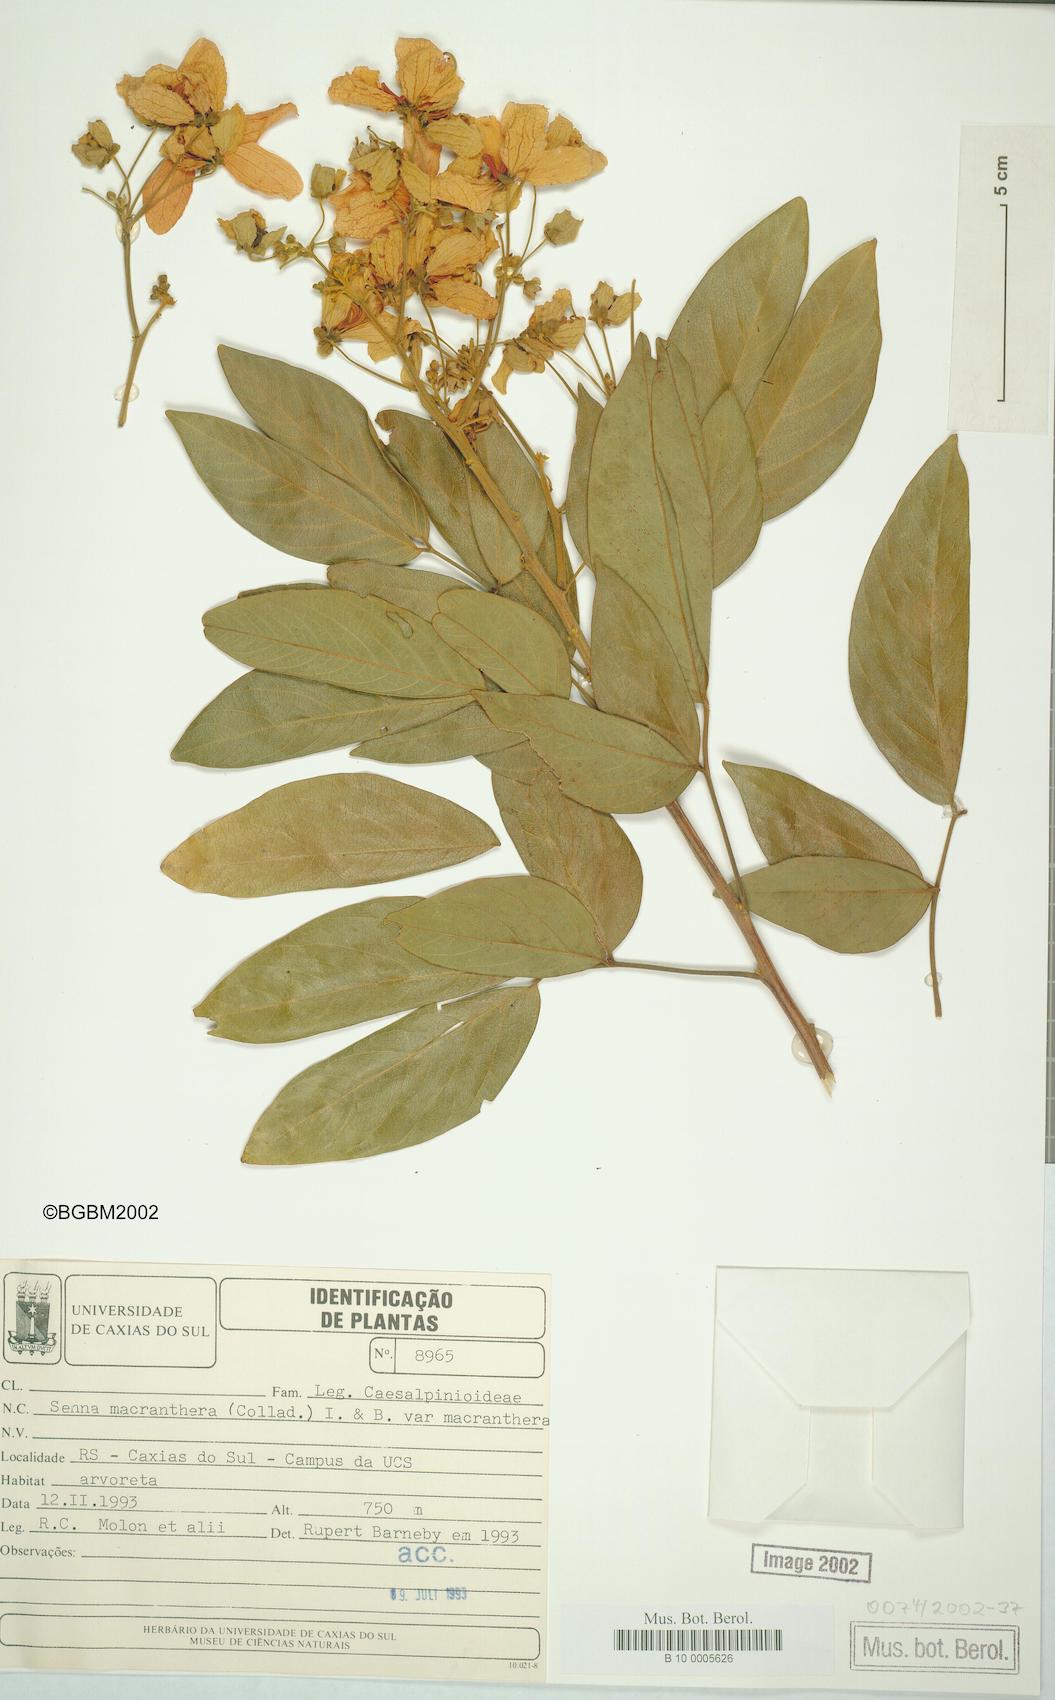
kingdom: Plantae
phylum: Tracheophyta
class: Magnoliopsida
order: Fabales
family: Fabaceae
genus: Senna
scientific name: Senna macranthera
